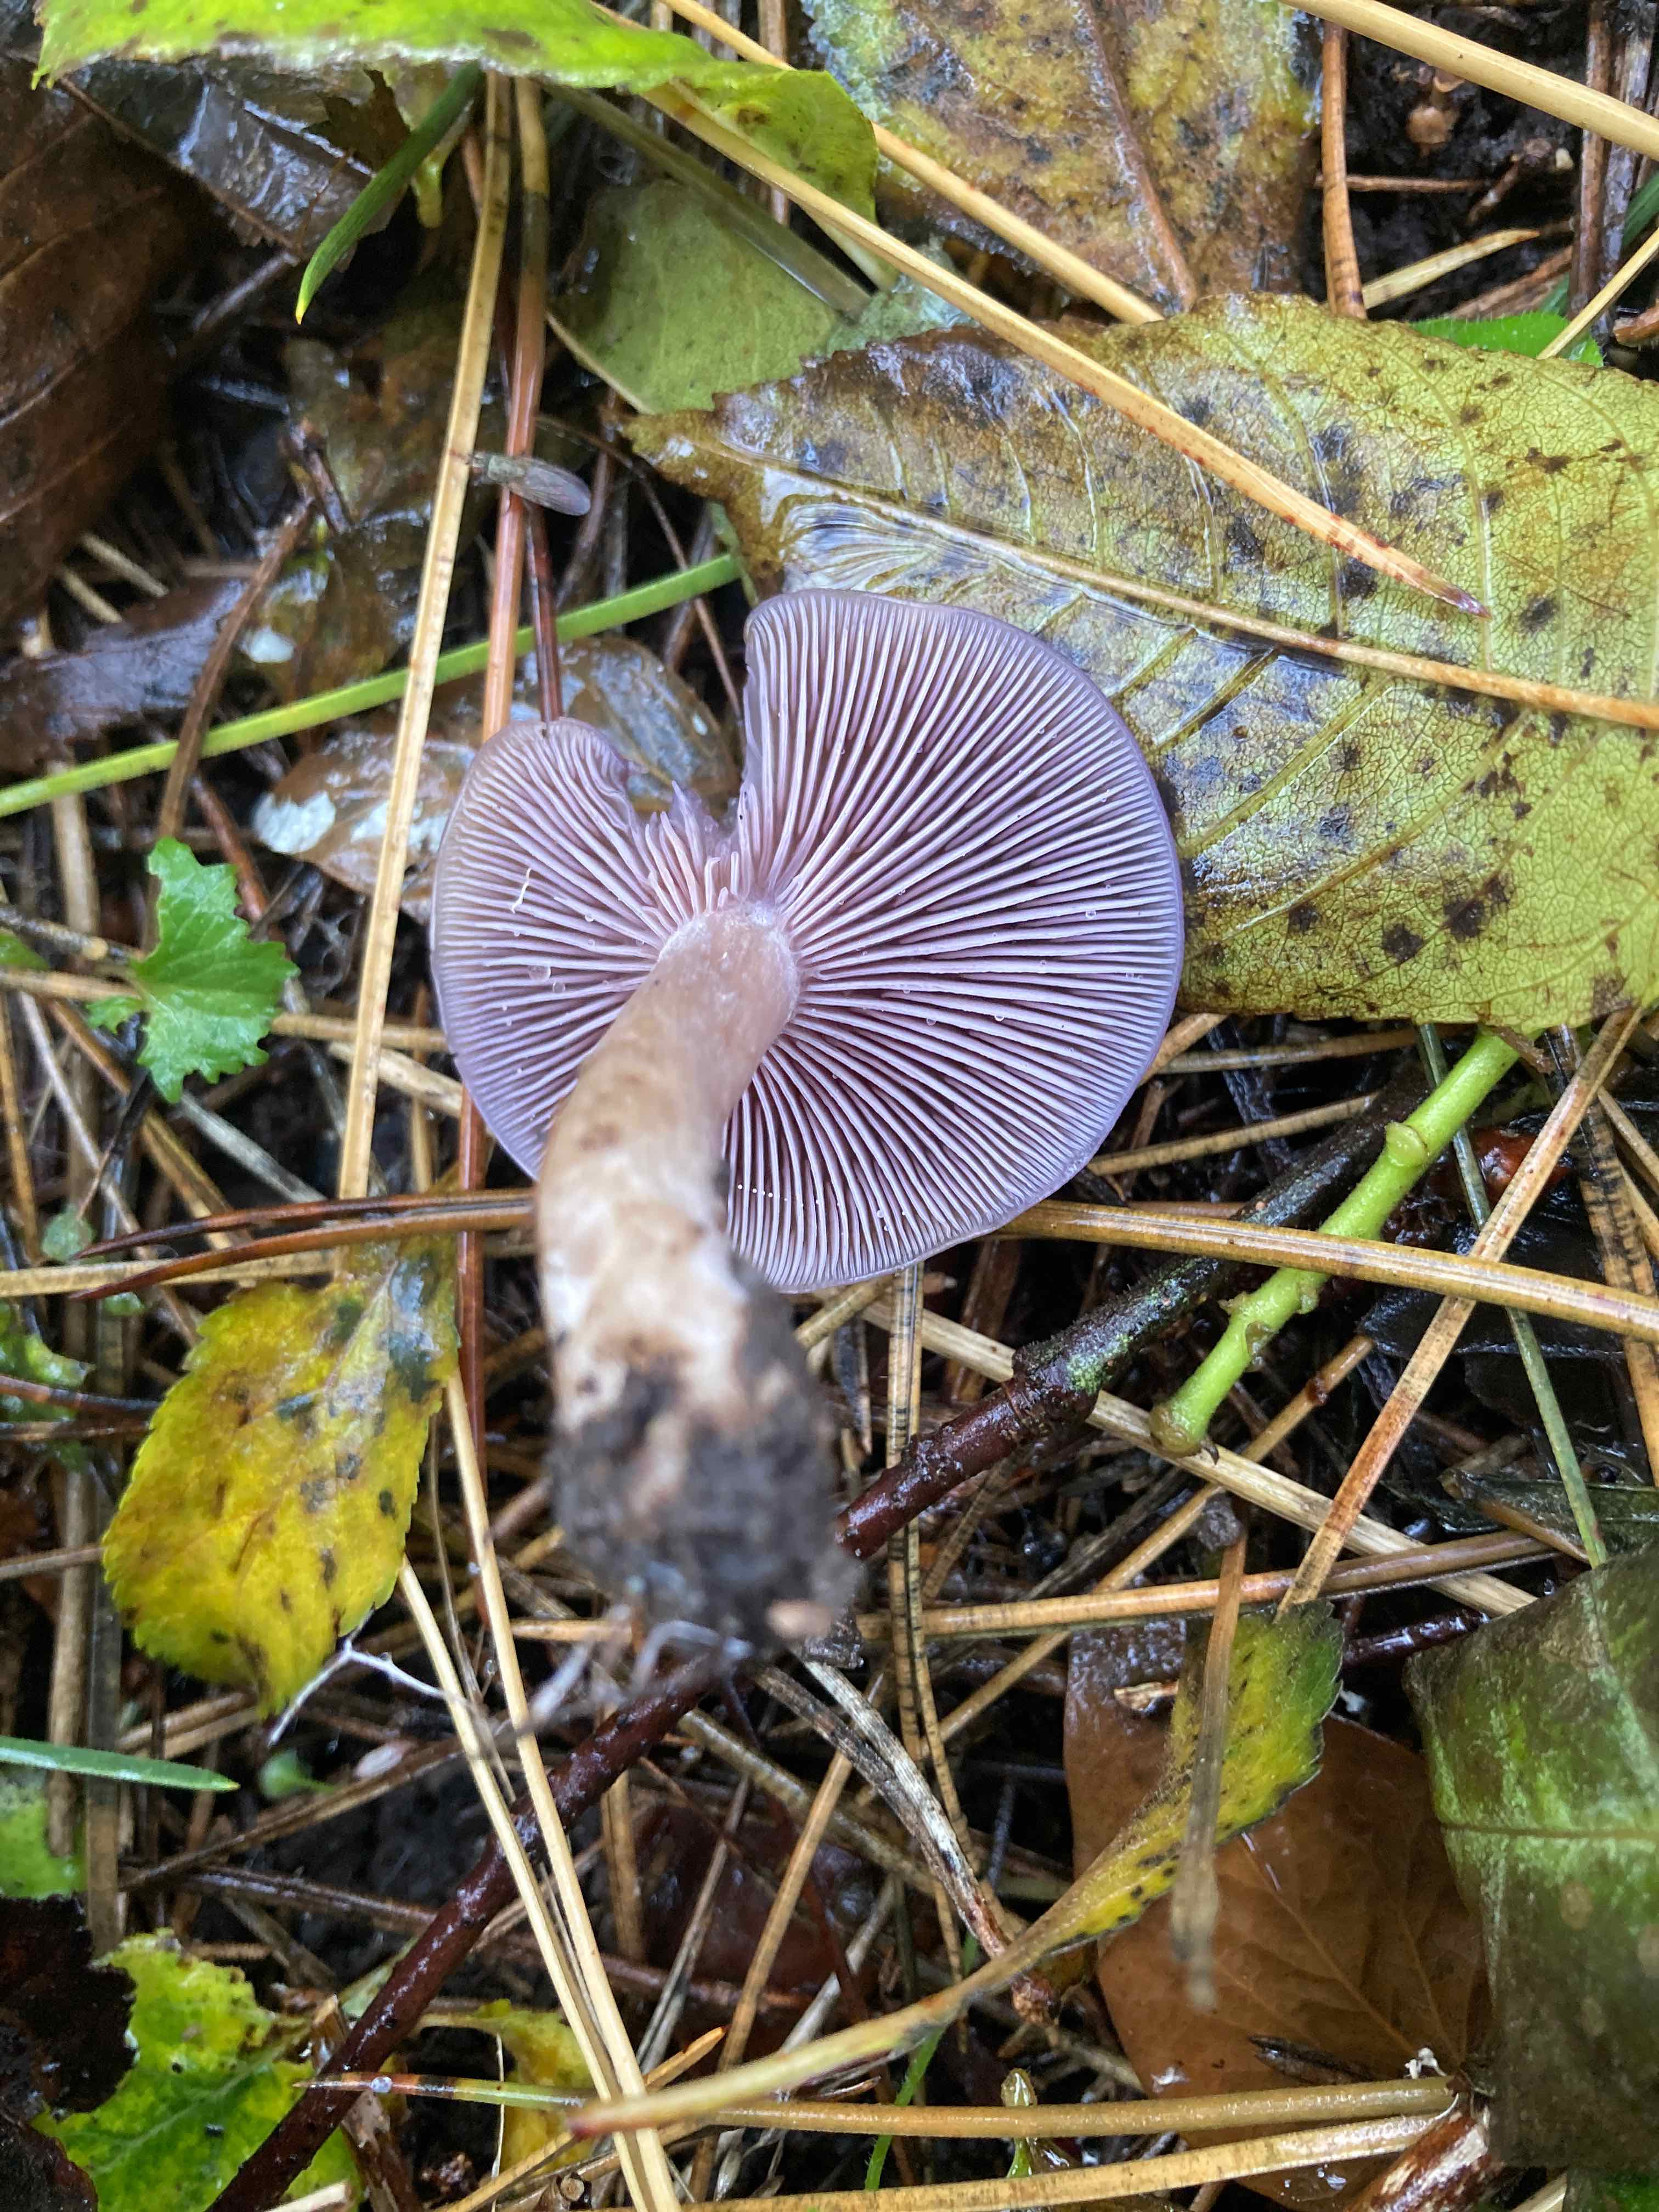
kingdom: Fungi
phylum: Basidiomycota
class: Agaricomycetes
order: Agaricales
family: Tricholomataceae
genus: Lepista
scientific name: Lepista lilacea
